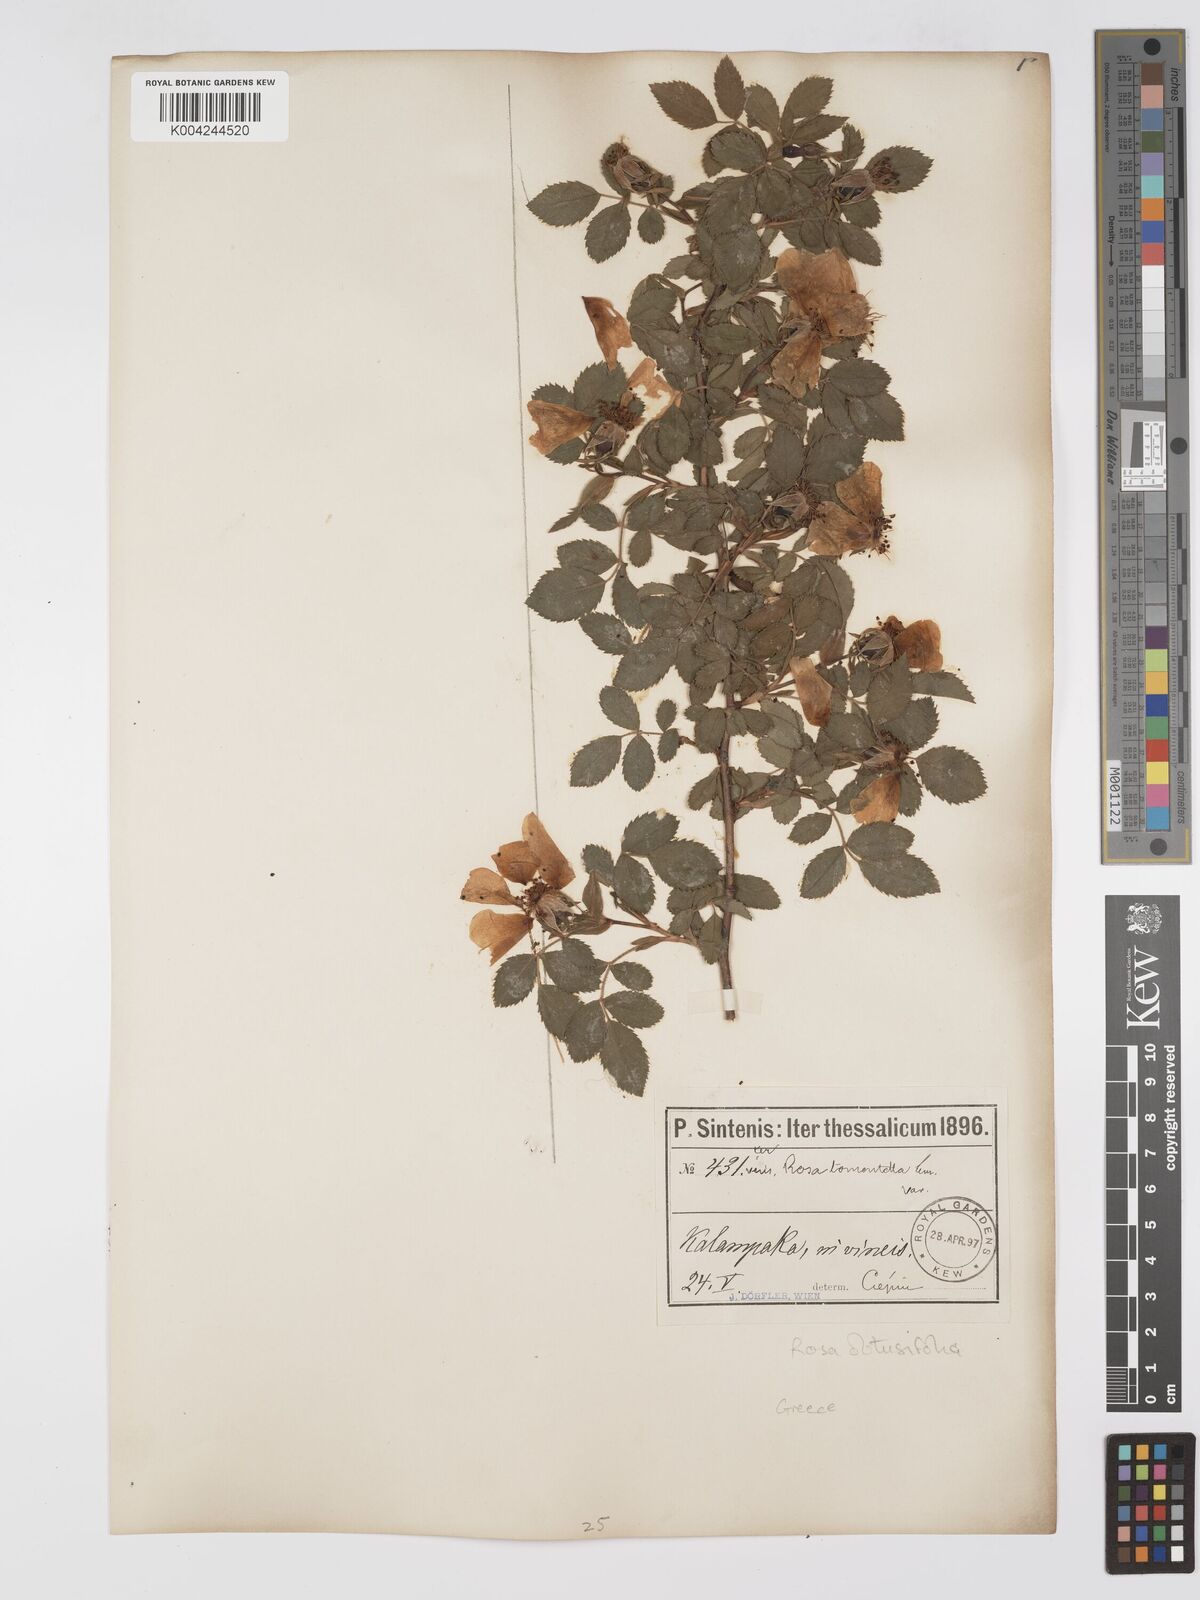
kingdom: Plantae
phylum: Tracheophyta
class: Magnoliopsida
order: Rosales
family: Rosaceae
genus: Rosa
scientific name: Rosa obtusifolia
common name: Round-leaved dog-rose
